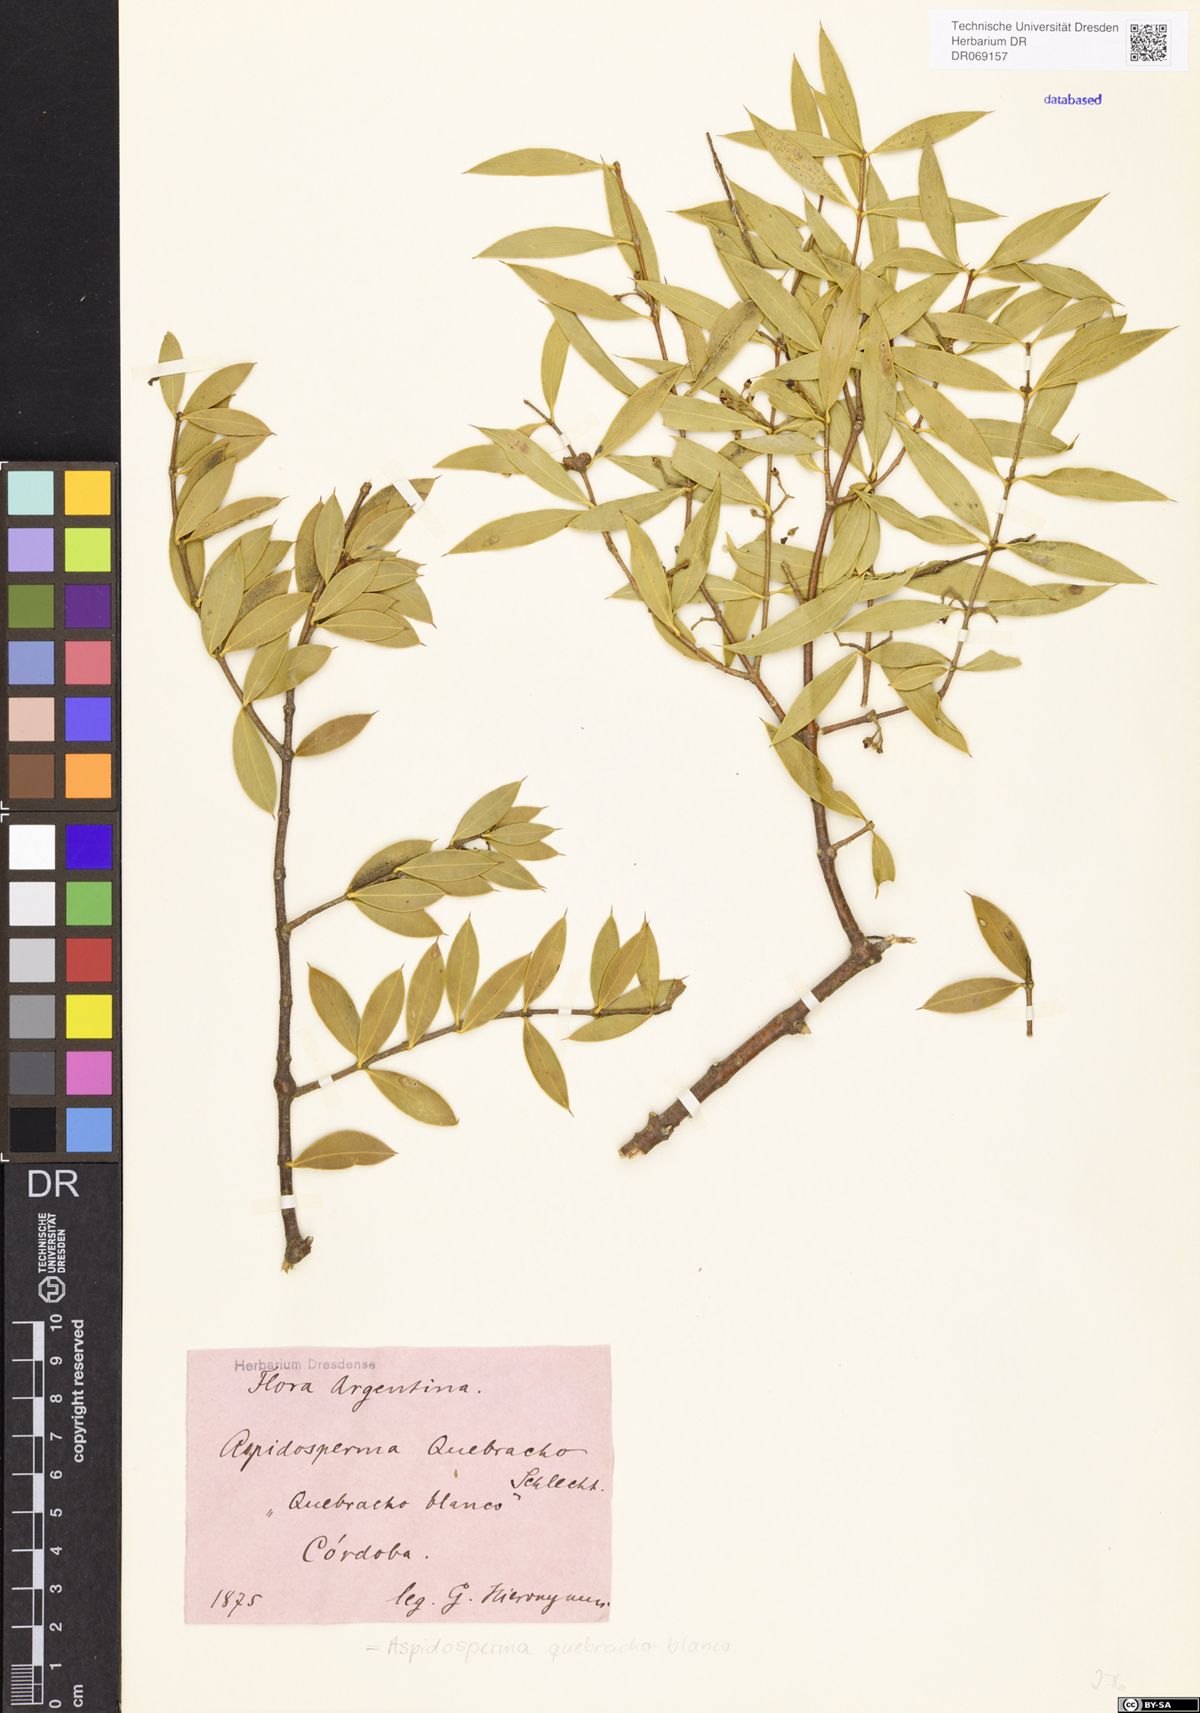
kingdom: Plantae
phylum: Tracheophyta
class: Magnoliopsida
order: Gentianales
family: Apocynaceae
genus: Aspidosperma
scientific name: Aspidosperma quebracho-blanco
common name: White quebracho
